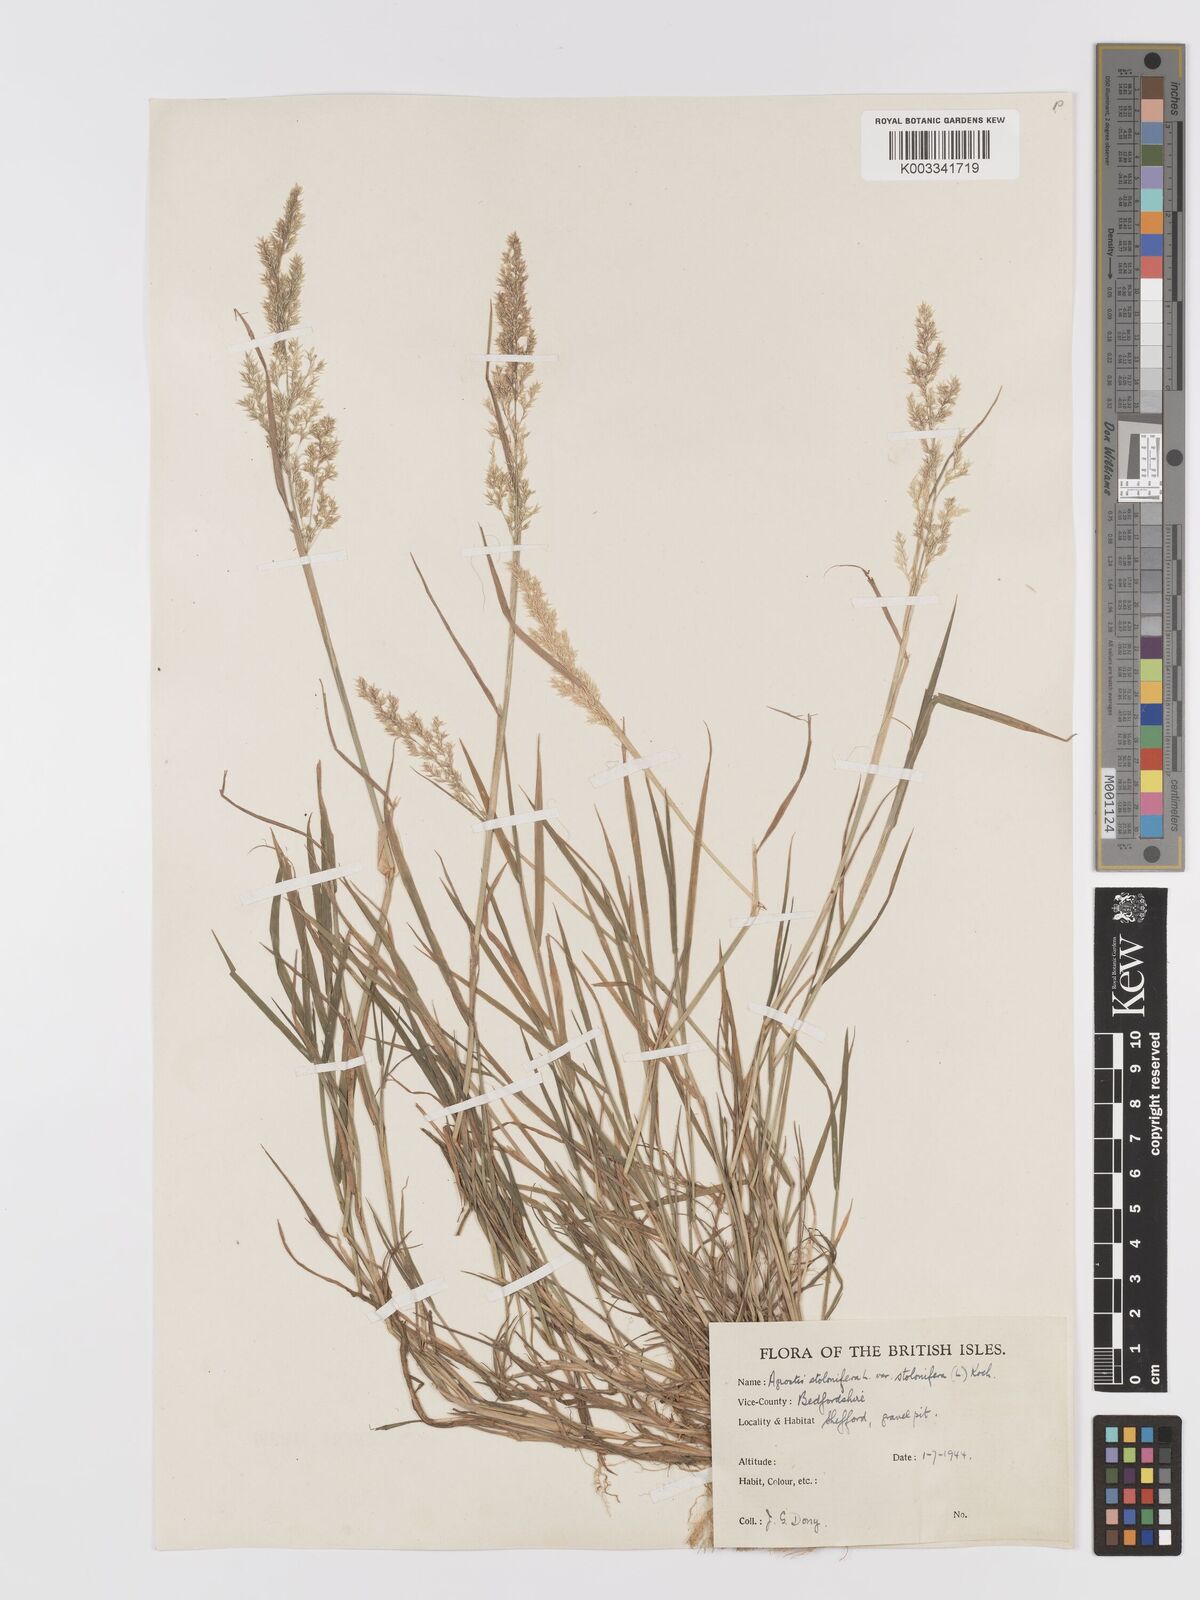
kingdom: Plantae
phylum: Tracheophyta
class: Liliopsida
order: Poales
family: Poaceae
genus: Agrostis
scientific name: Agrostis stolonifera
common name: Creeping bentgrass
